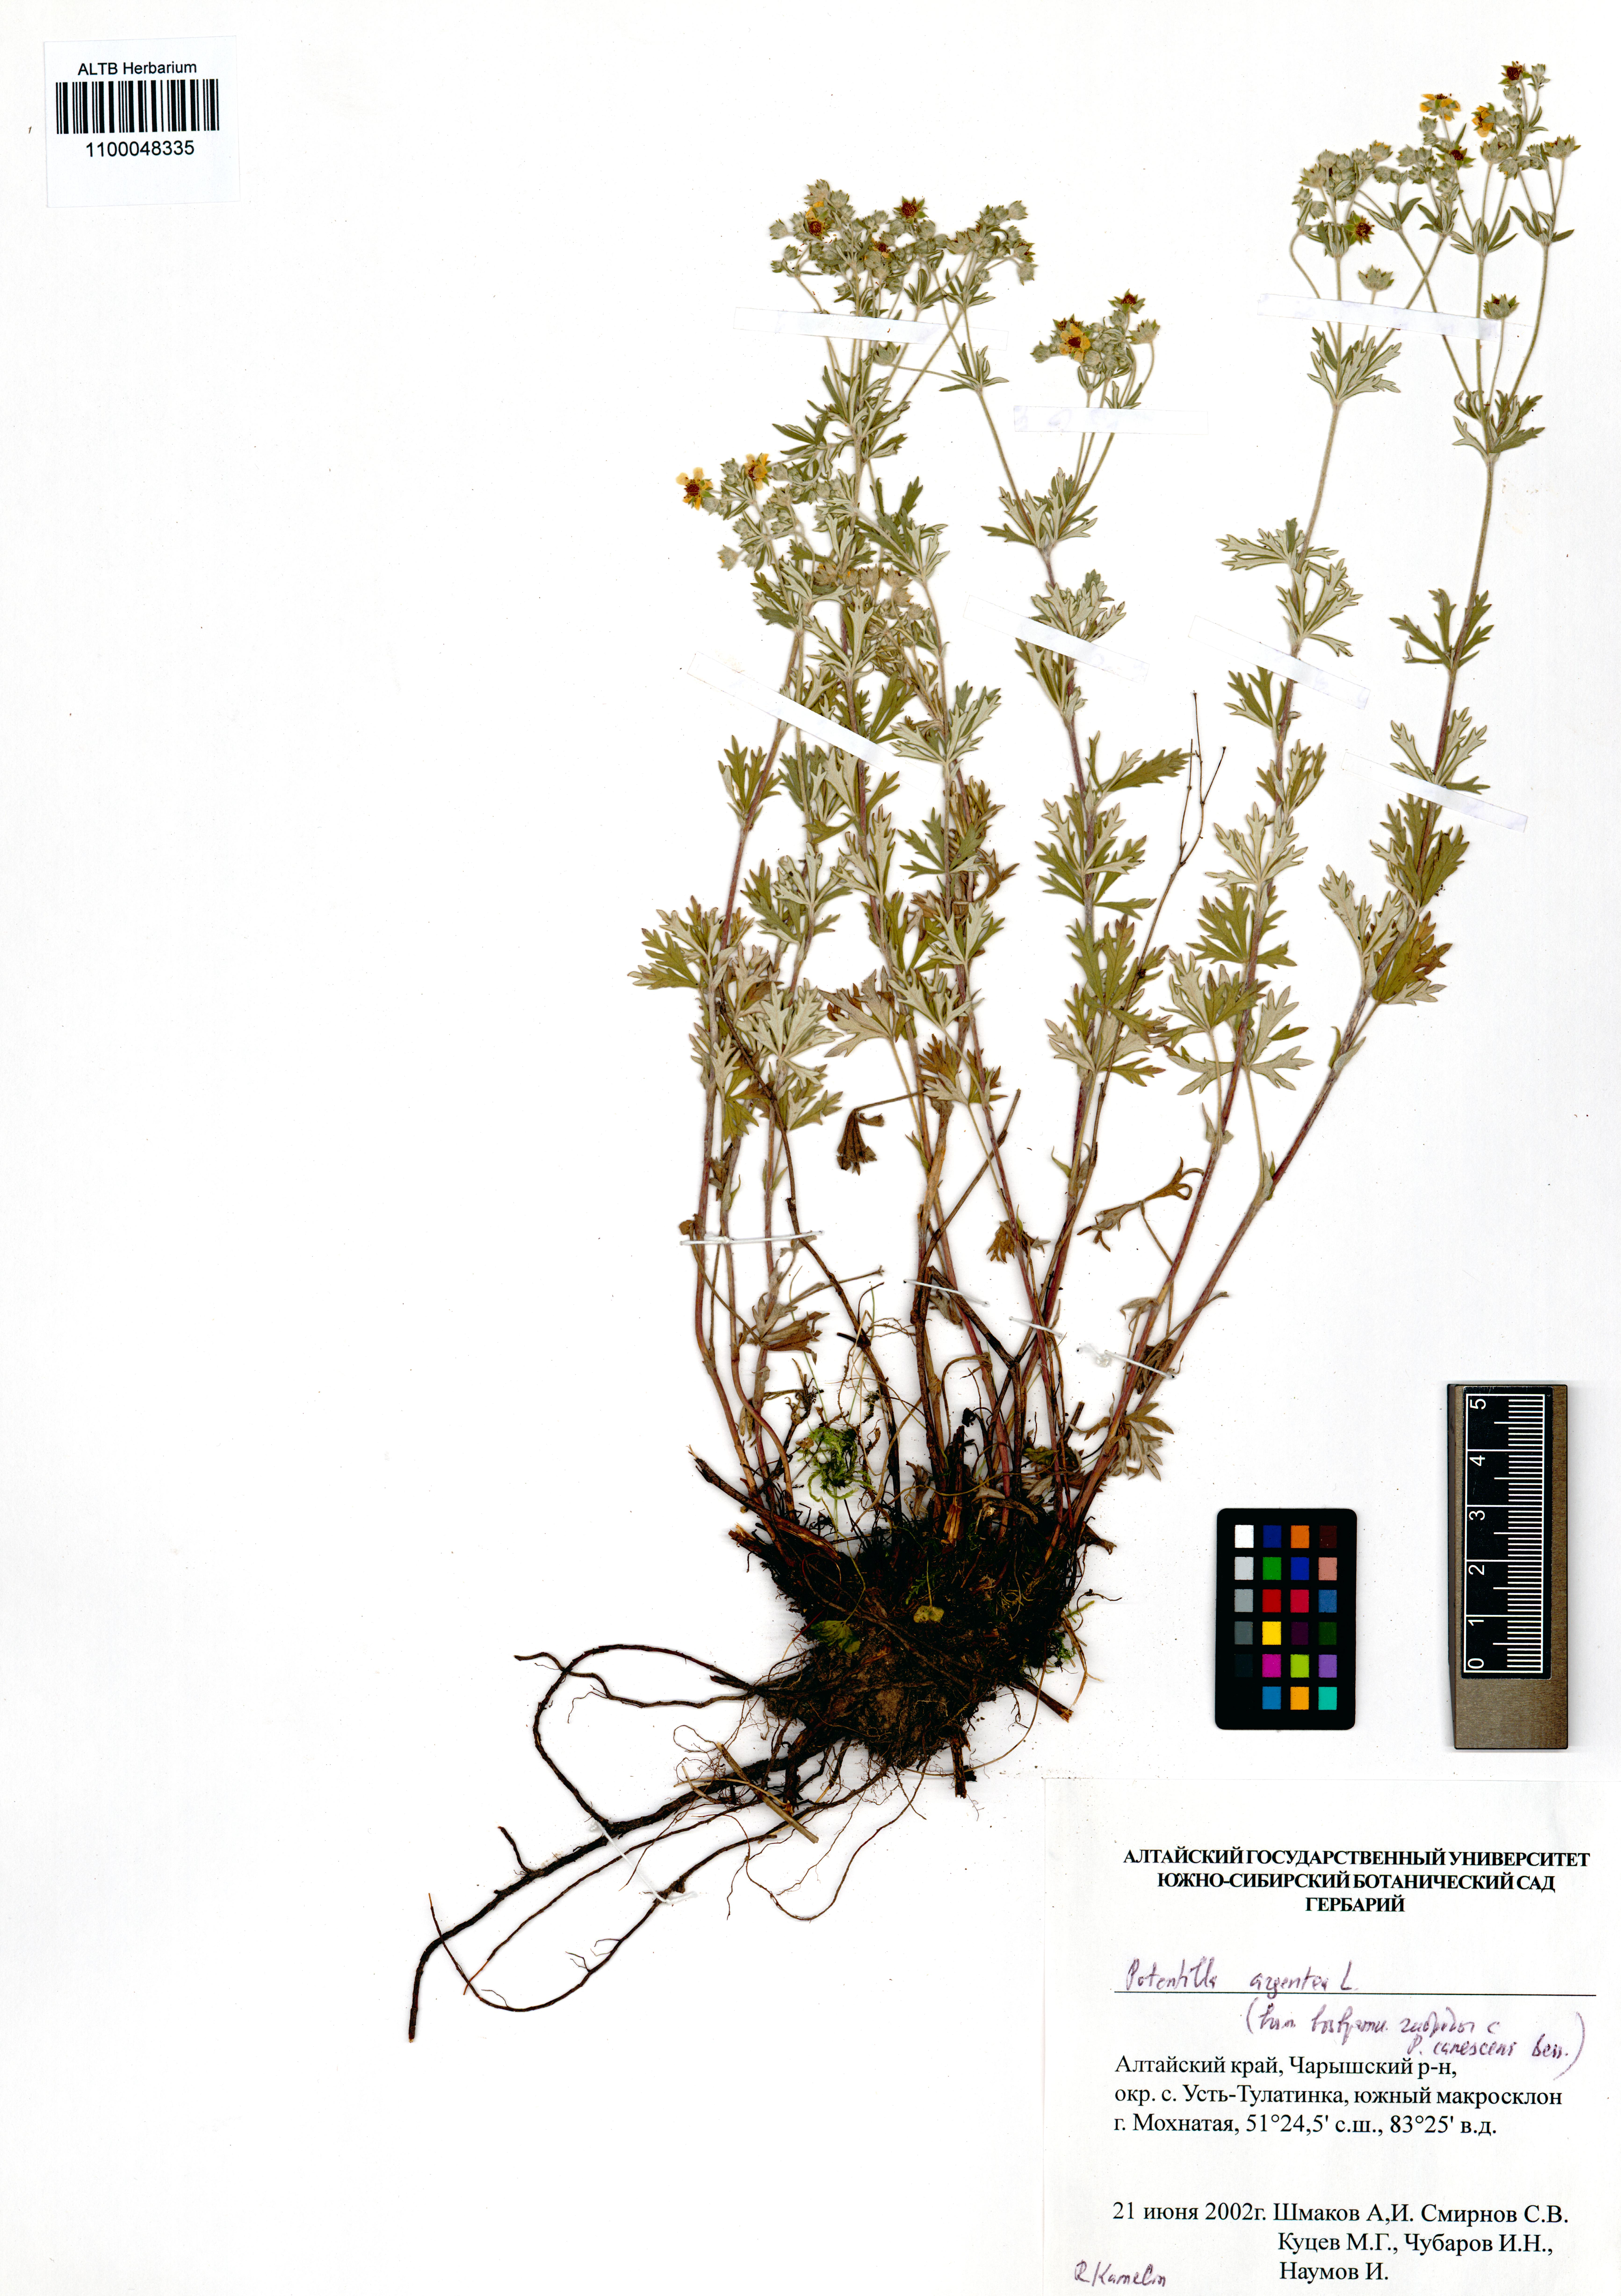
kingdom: Plantae
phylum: Tracheophyta
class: Magnoliopsida
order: Rosales
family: Rosaceae
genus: Potentilla
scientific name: Potentilla argentea
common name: Hoary cinquefoil
